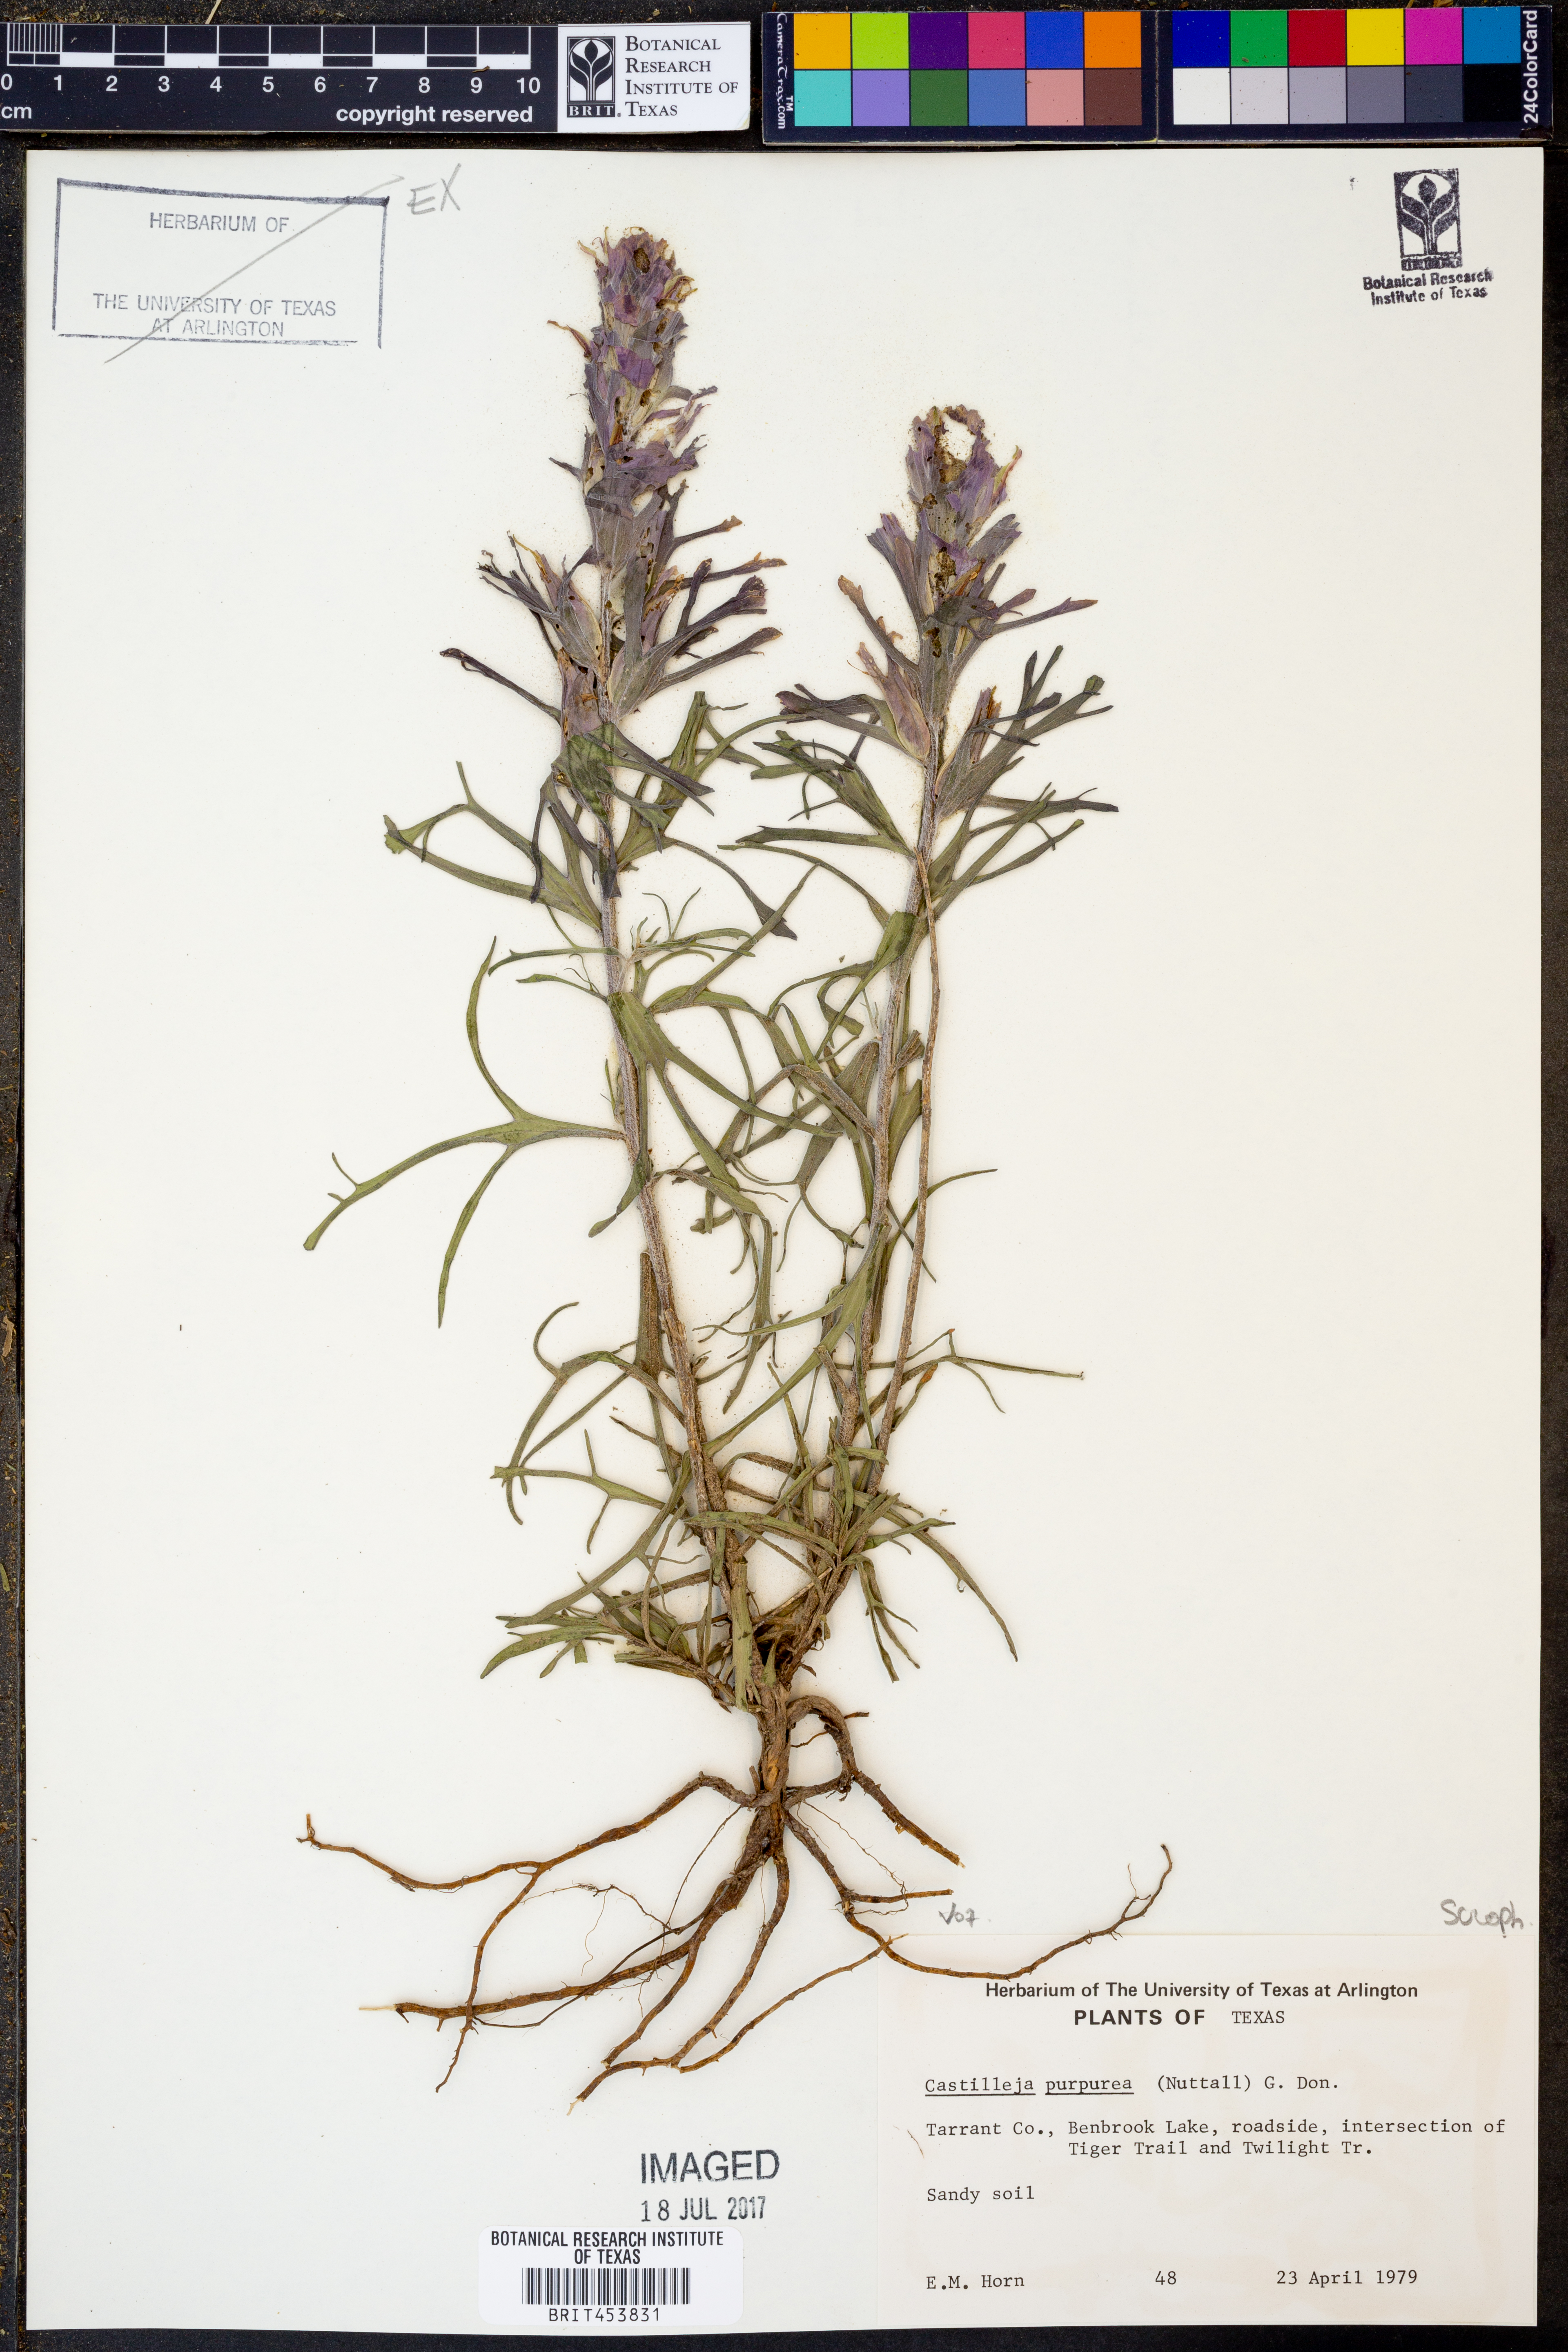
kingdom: Plantae
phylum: Tracheophyta
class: Magnoliopsida
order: Lamiales
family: Orobanchaceae
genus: Castilleja
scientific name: Castilleja purpurea
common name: Plains paintbrush
